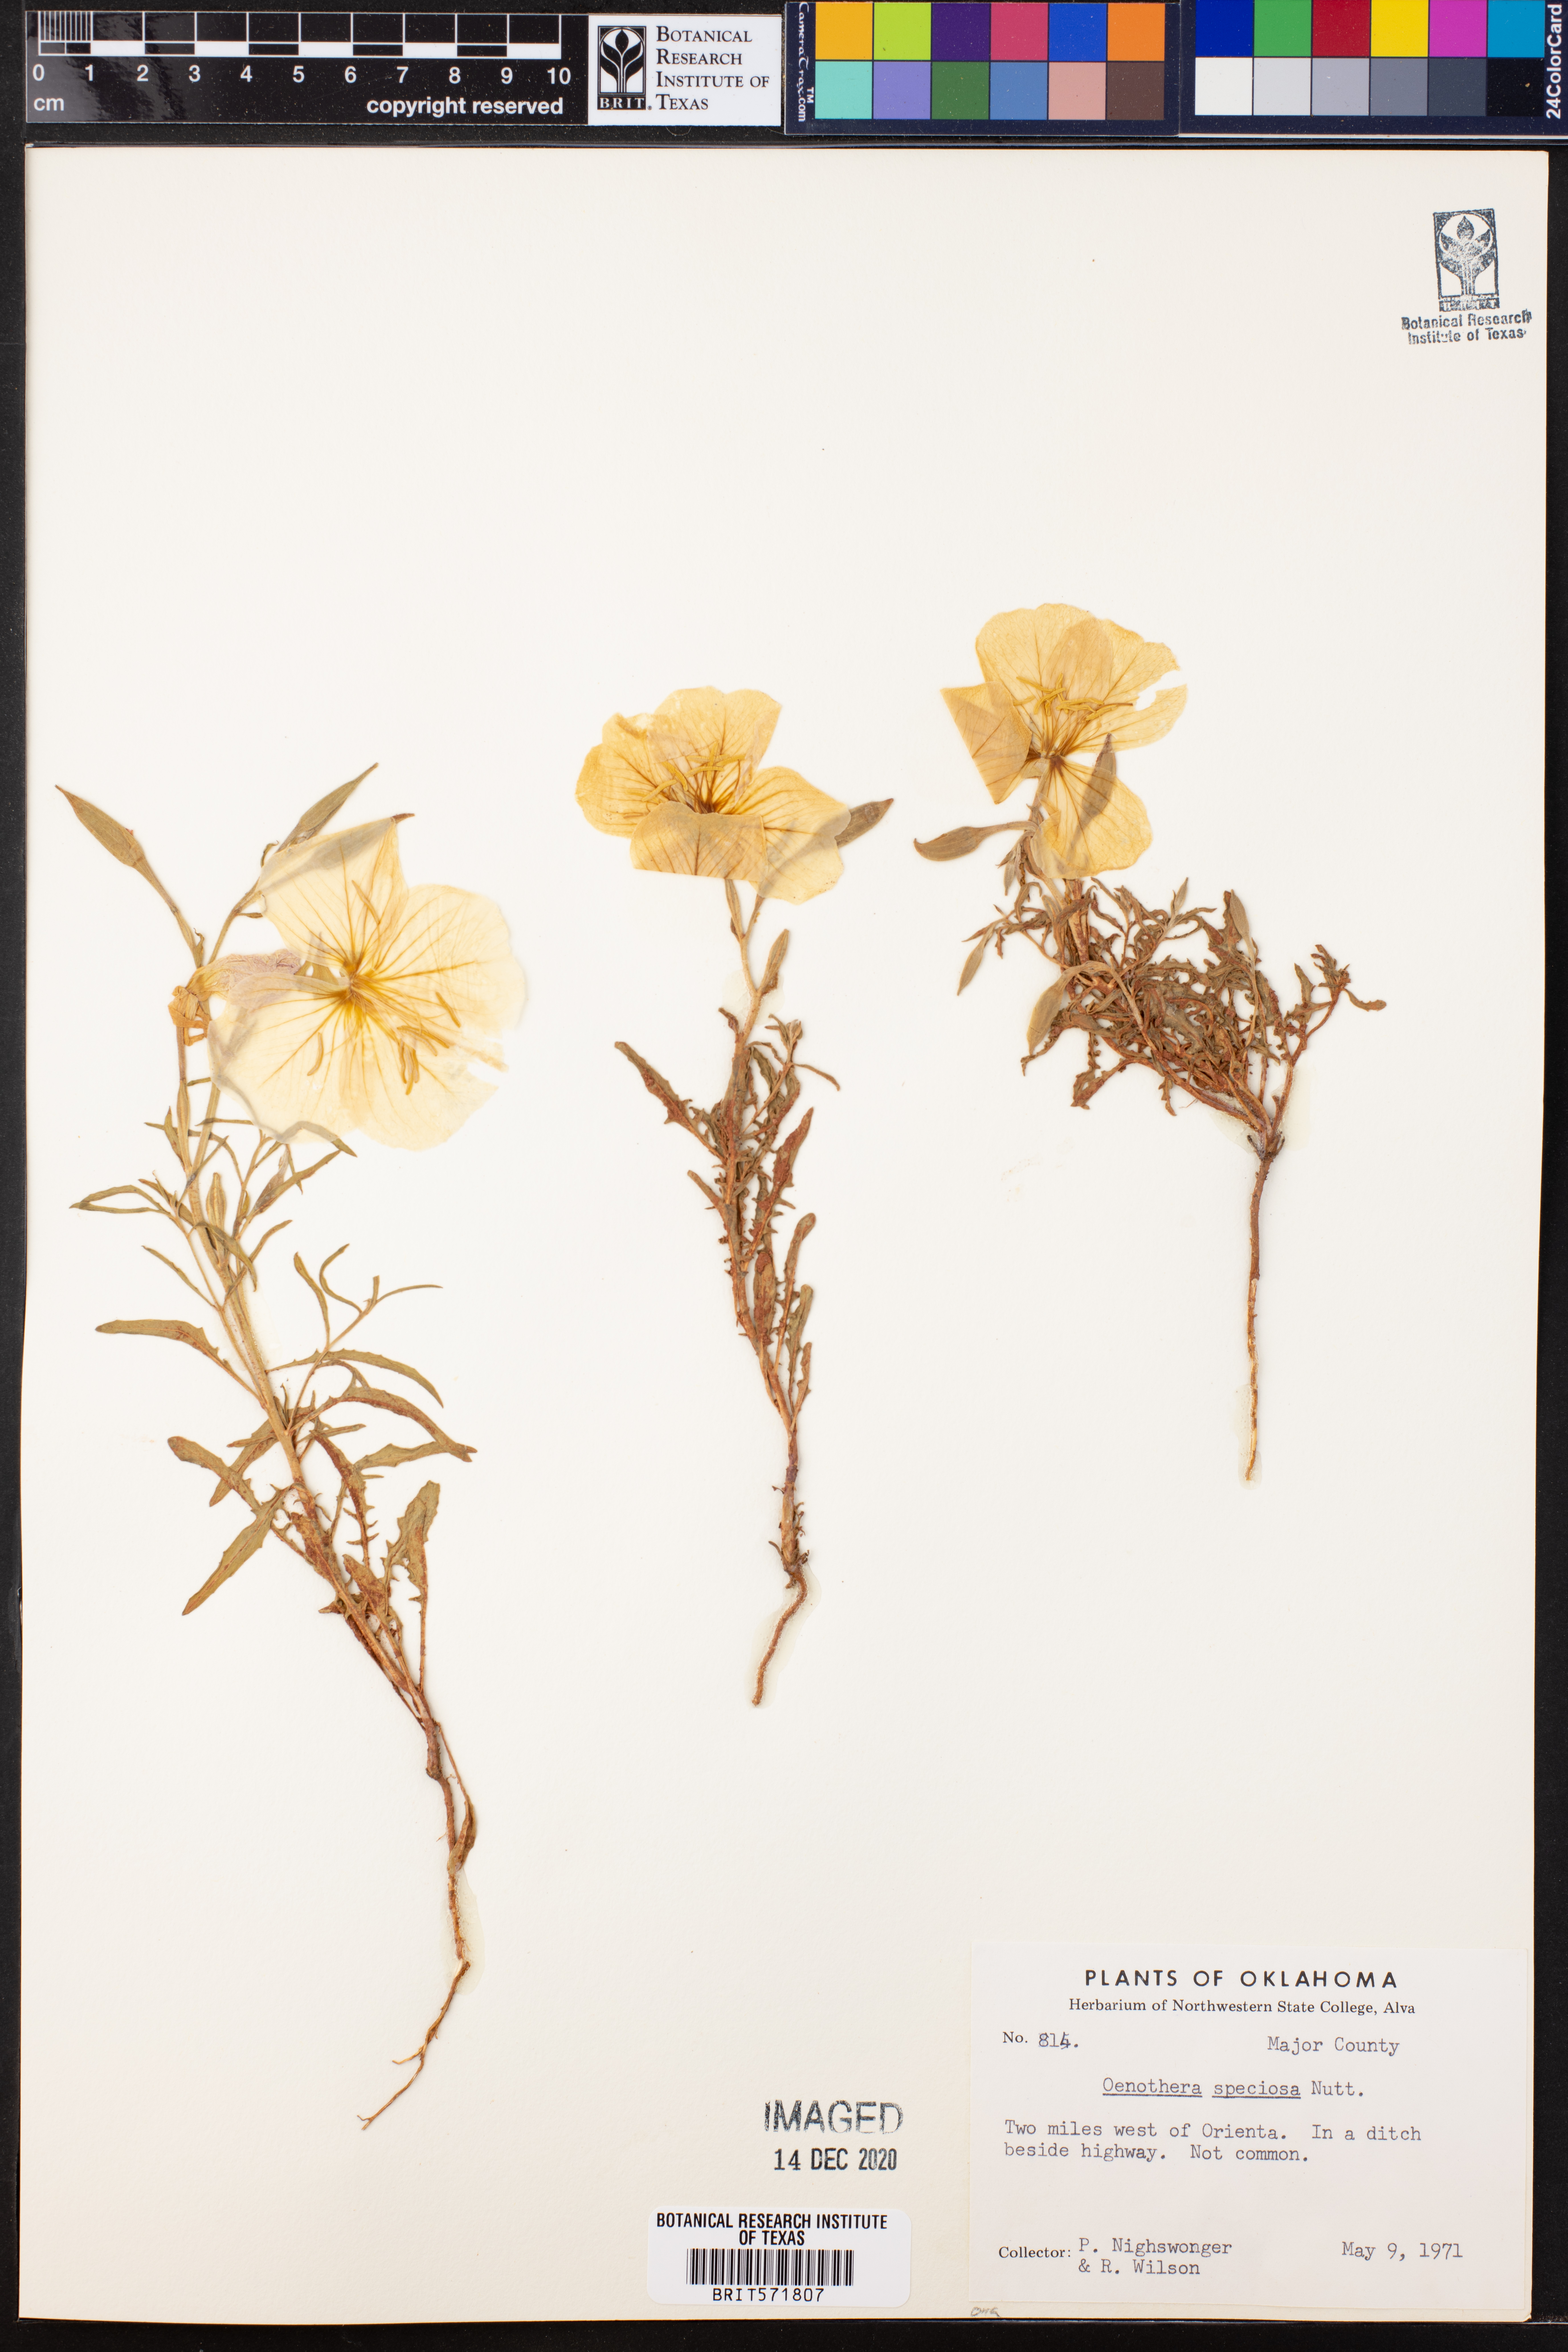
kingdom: Plantae
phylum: Tracheophyta
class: Magnoliopsida
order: Myrtales
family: Onagraceae
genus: Oenothera
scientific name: Oenothera speciosa
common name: White evening-primrose
